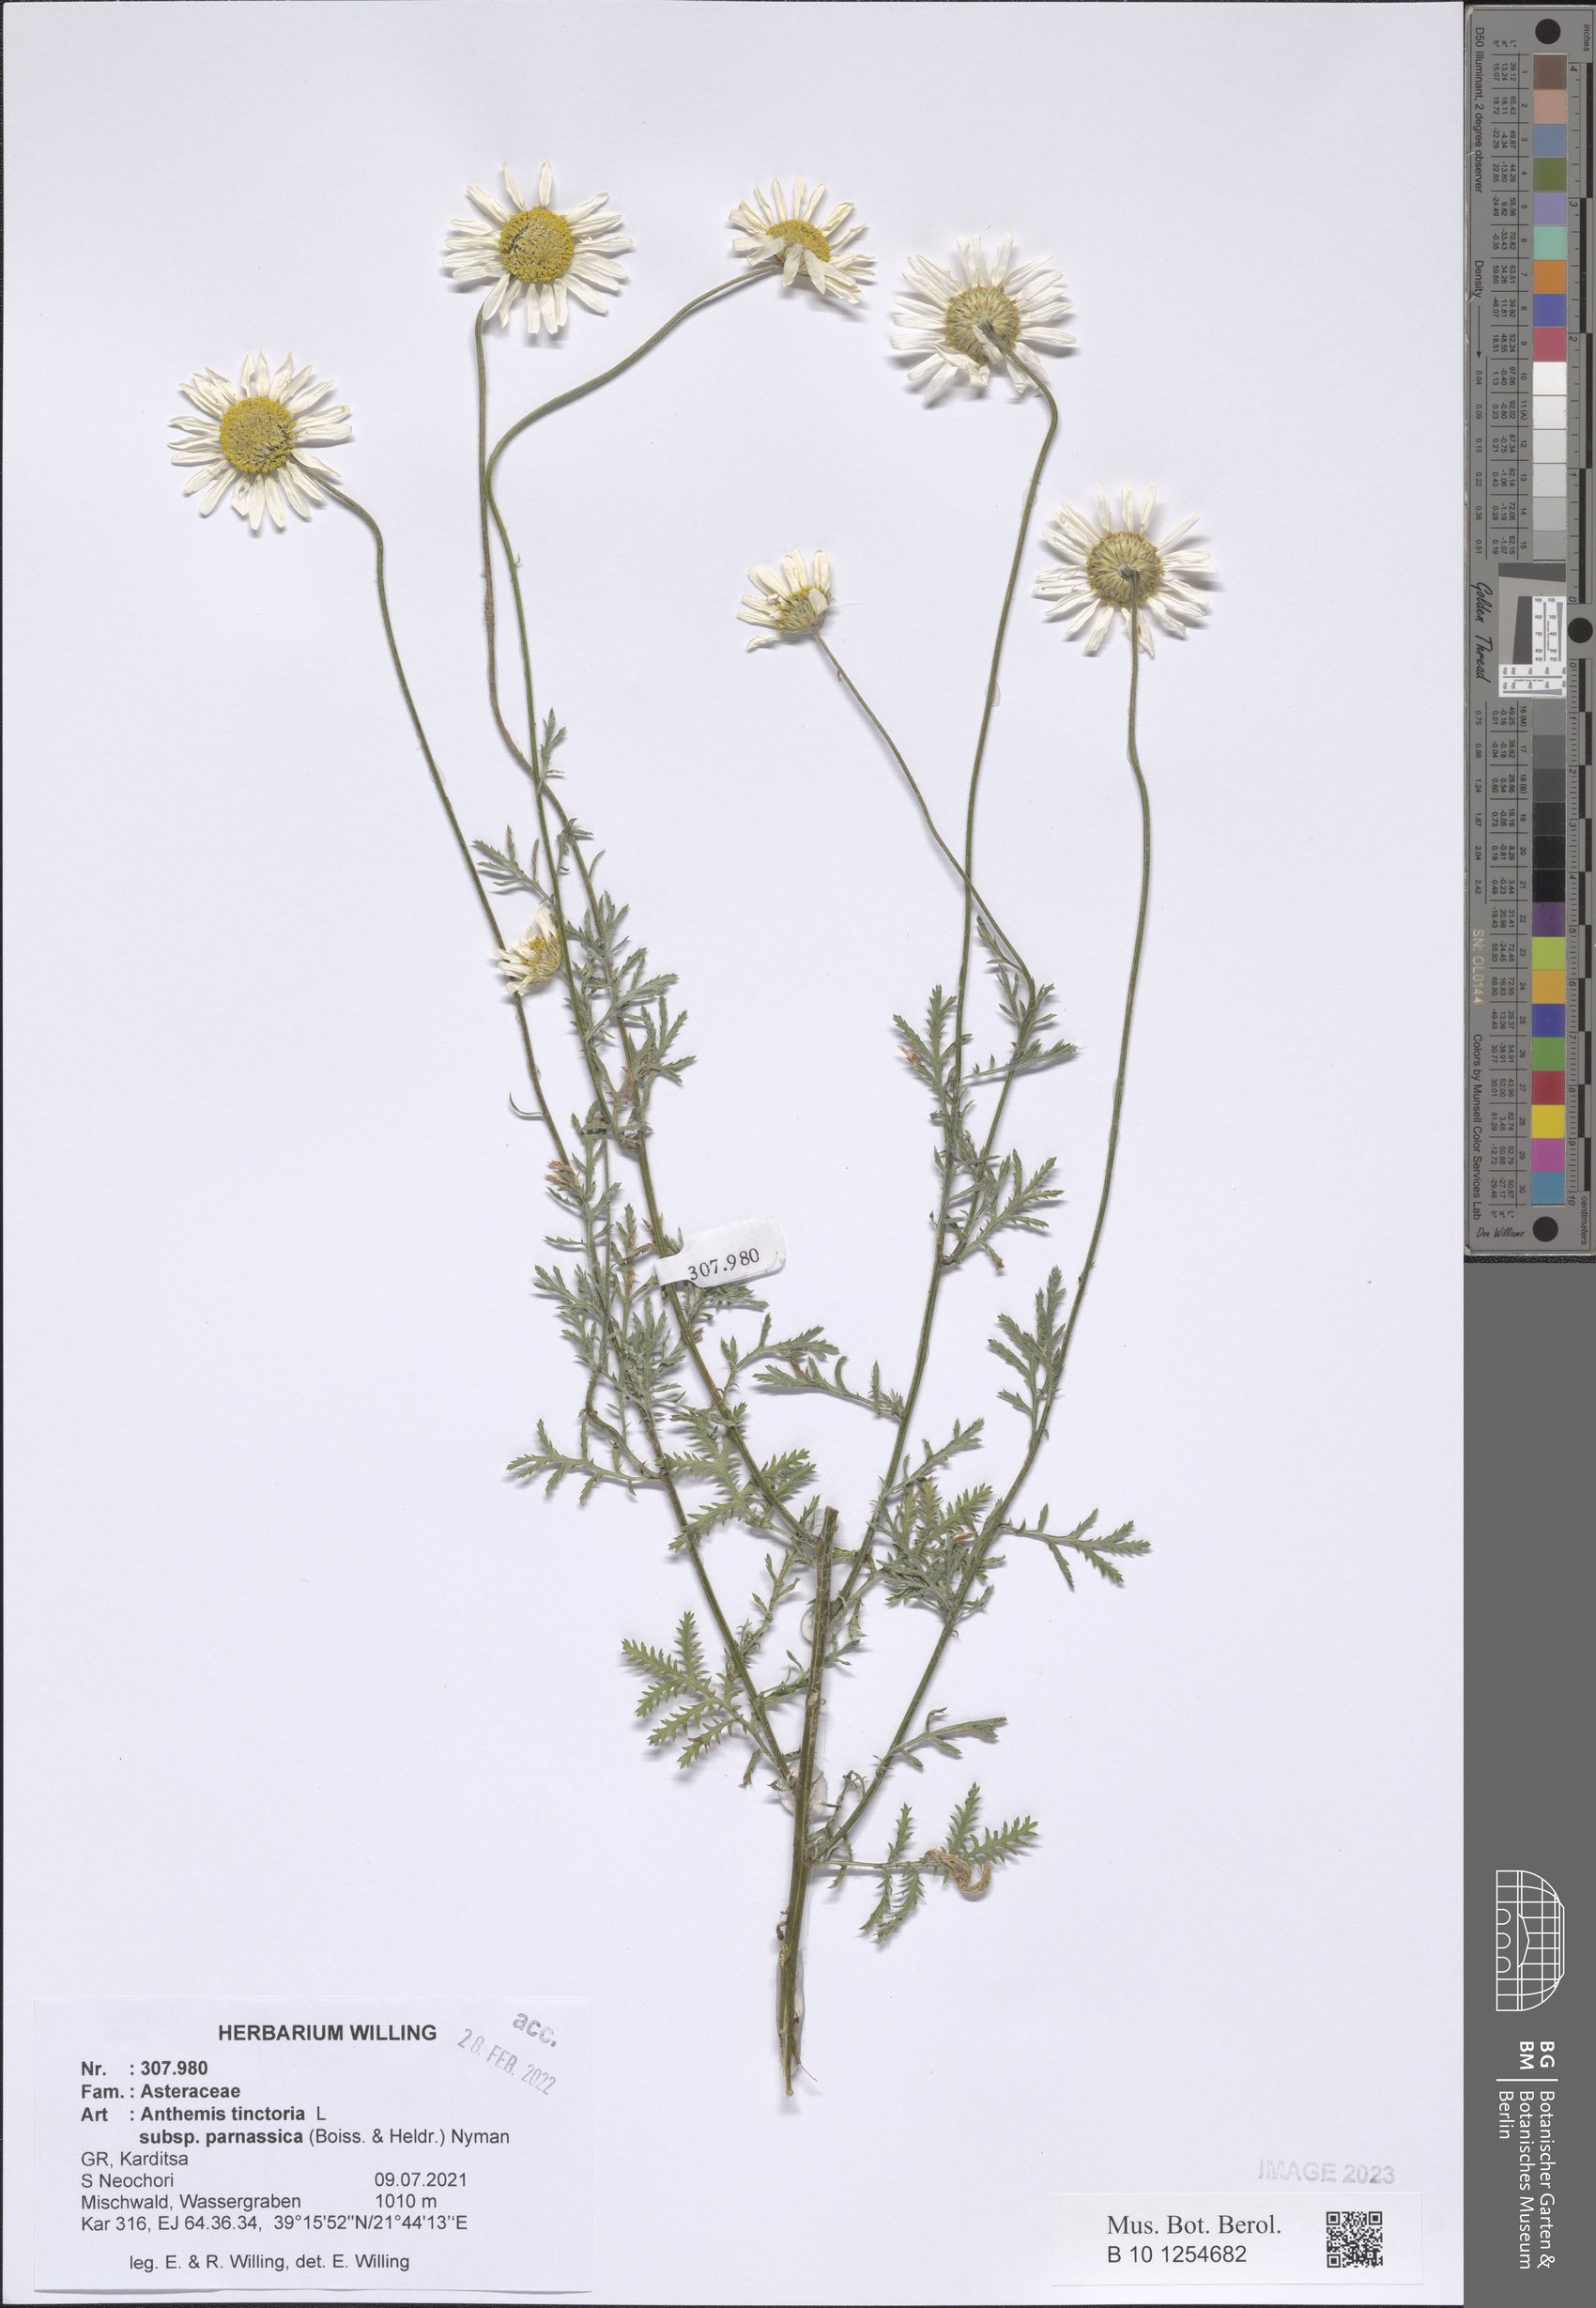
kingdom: Plantae
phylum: Tracheophyta
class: Magnoliopsida
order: Asterales
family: Asteraceae
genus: Cota
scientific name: Cota tinctoria
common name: Golden chamomile
